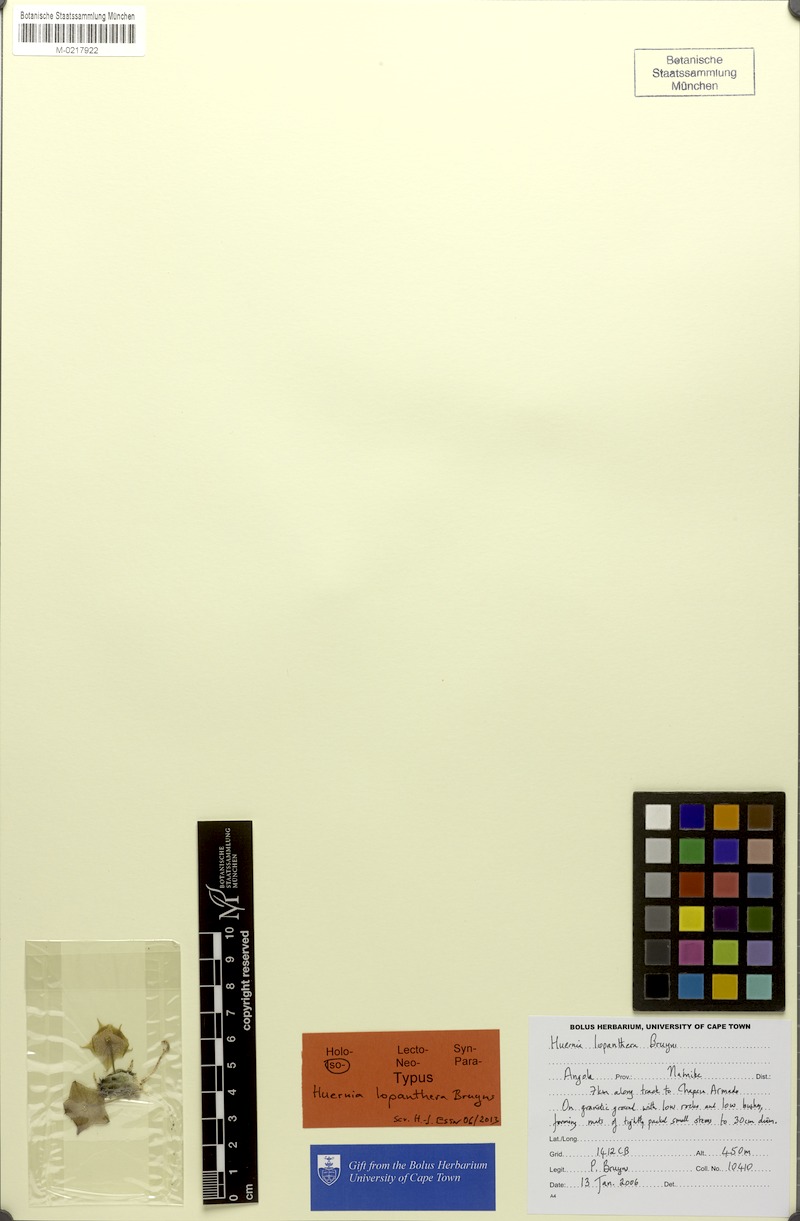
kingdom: Plantae
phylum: Tracheophyta
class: Magnoliopsida
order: Gentianales
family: Apocynaceae
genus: Ceropegia
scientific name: Ceropegia lopanthera
